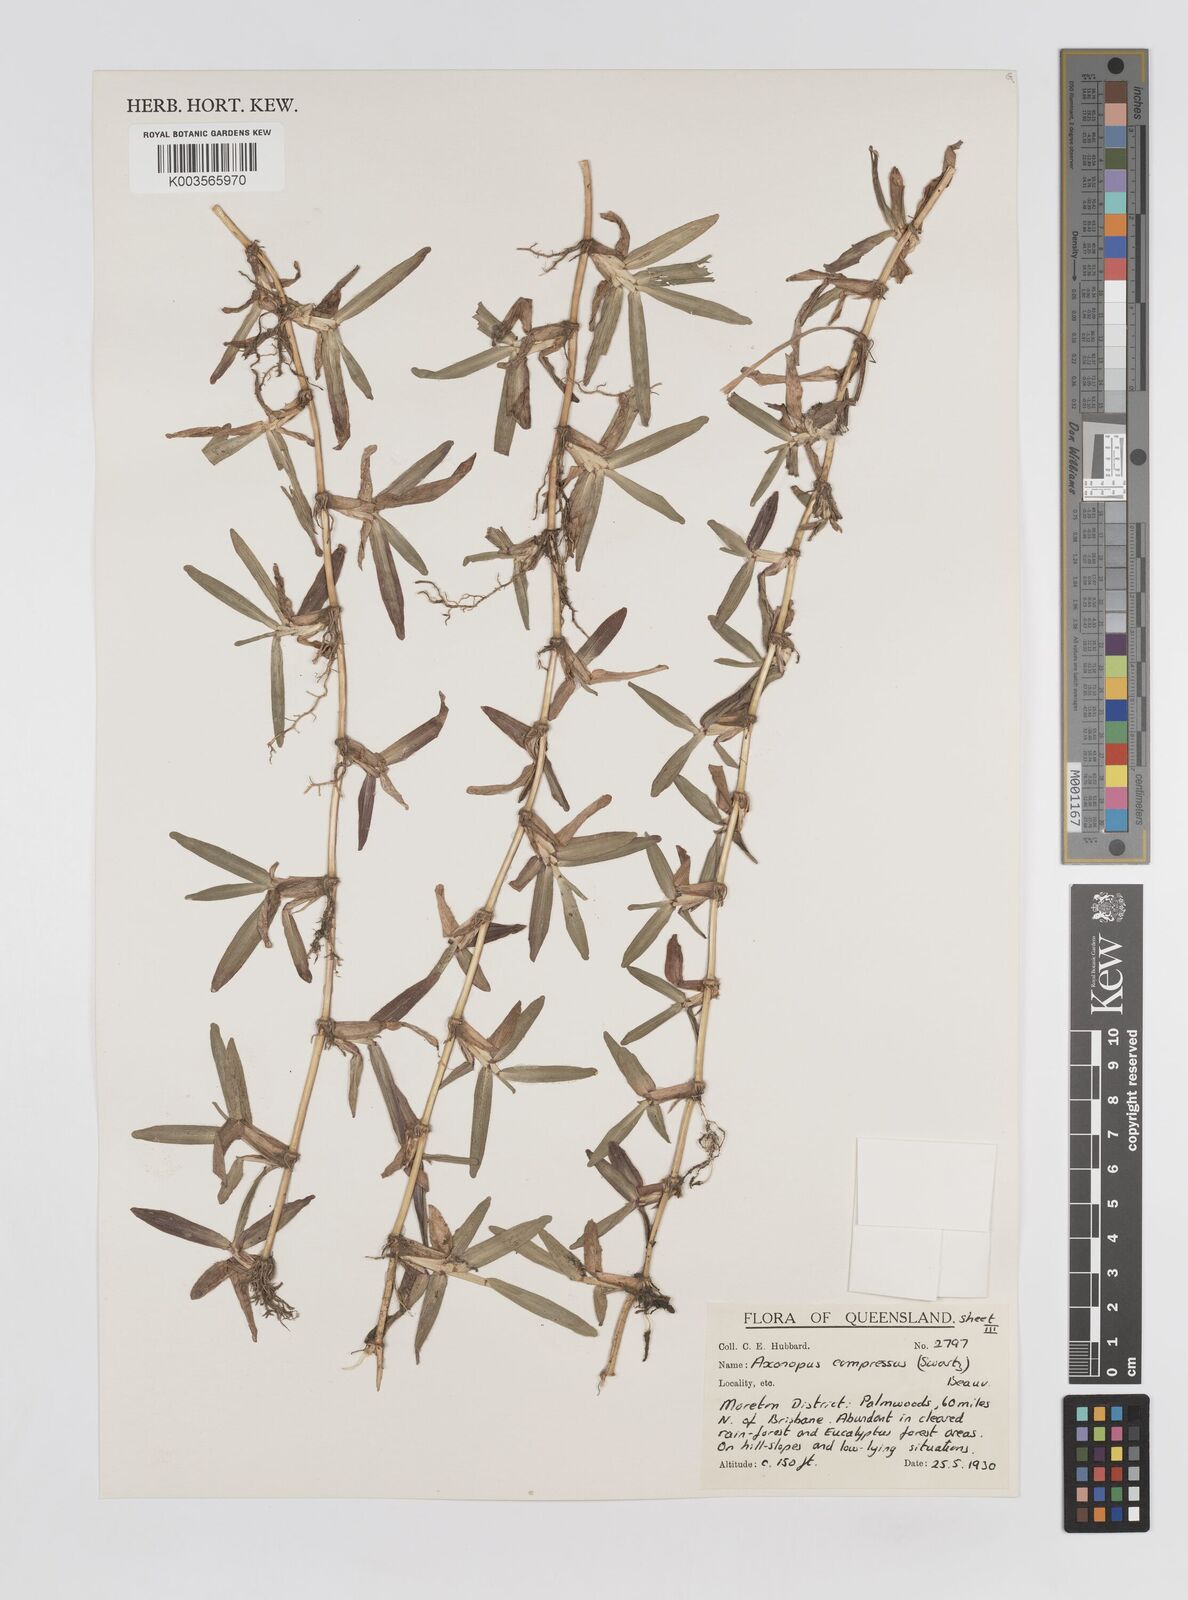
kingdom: Plantae
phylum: Tracheophyta
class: Liliopsida
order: Poales
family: Poaceae
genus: Axonopus
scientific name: Axonopus compressus
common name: American carpet grass
